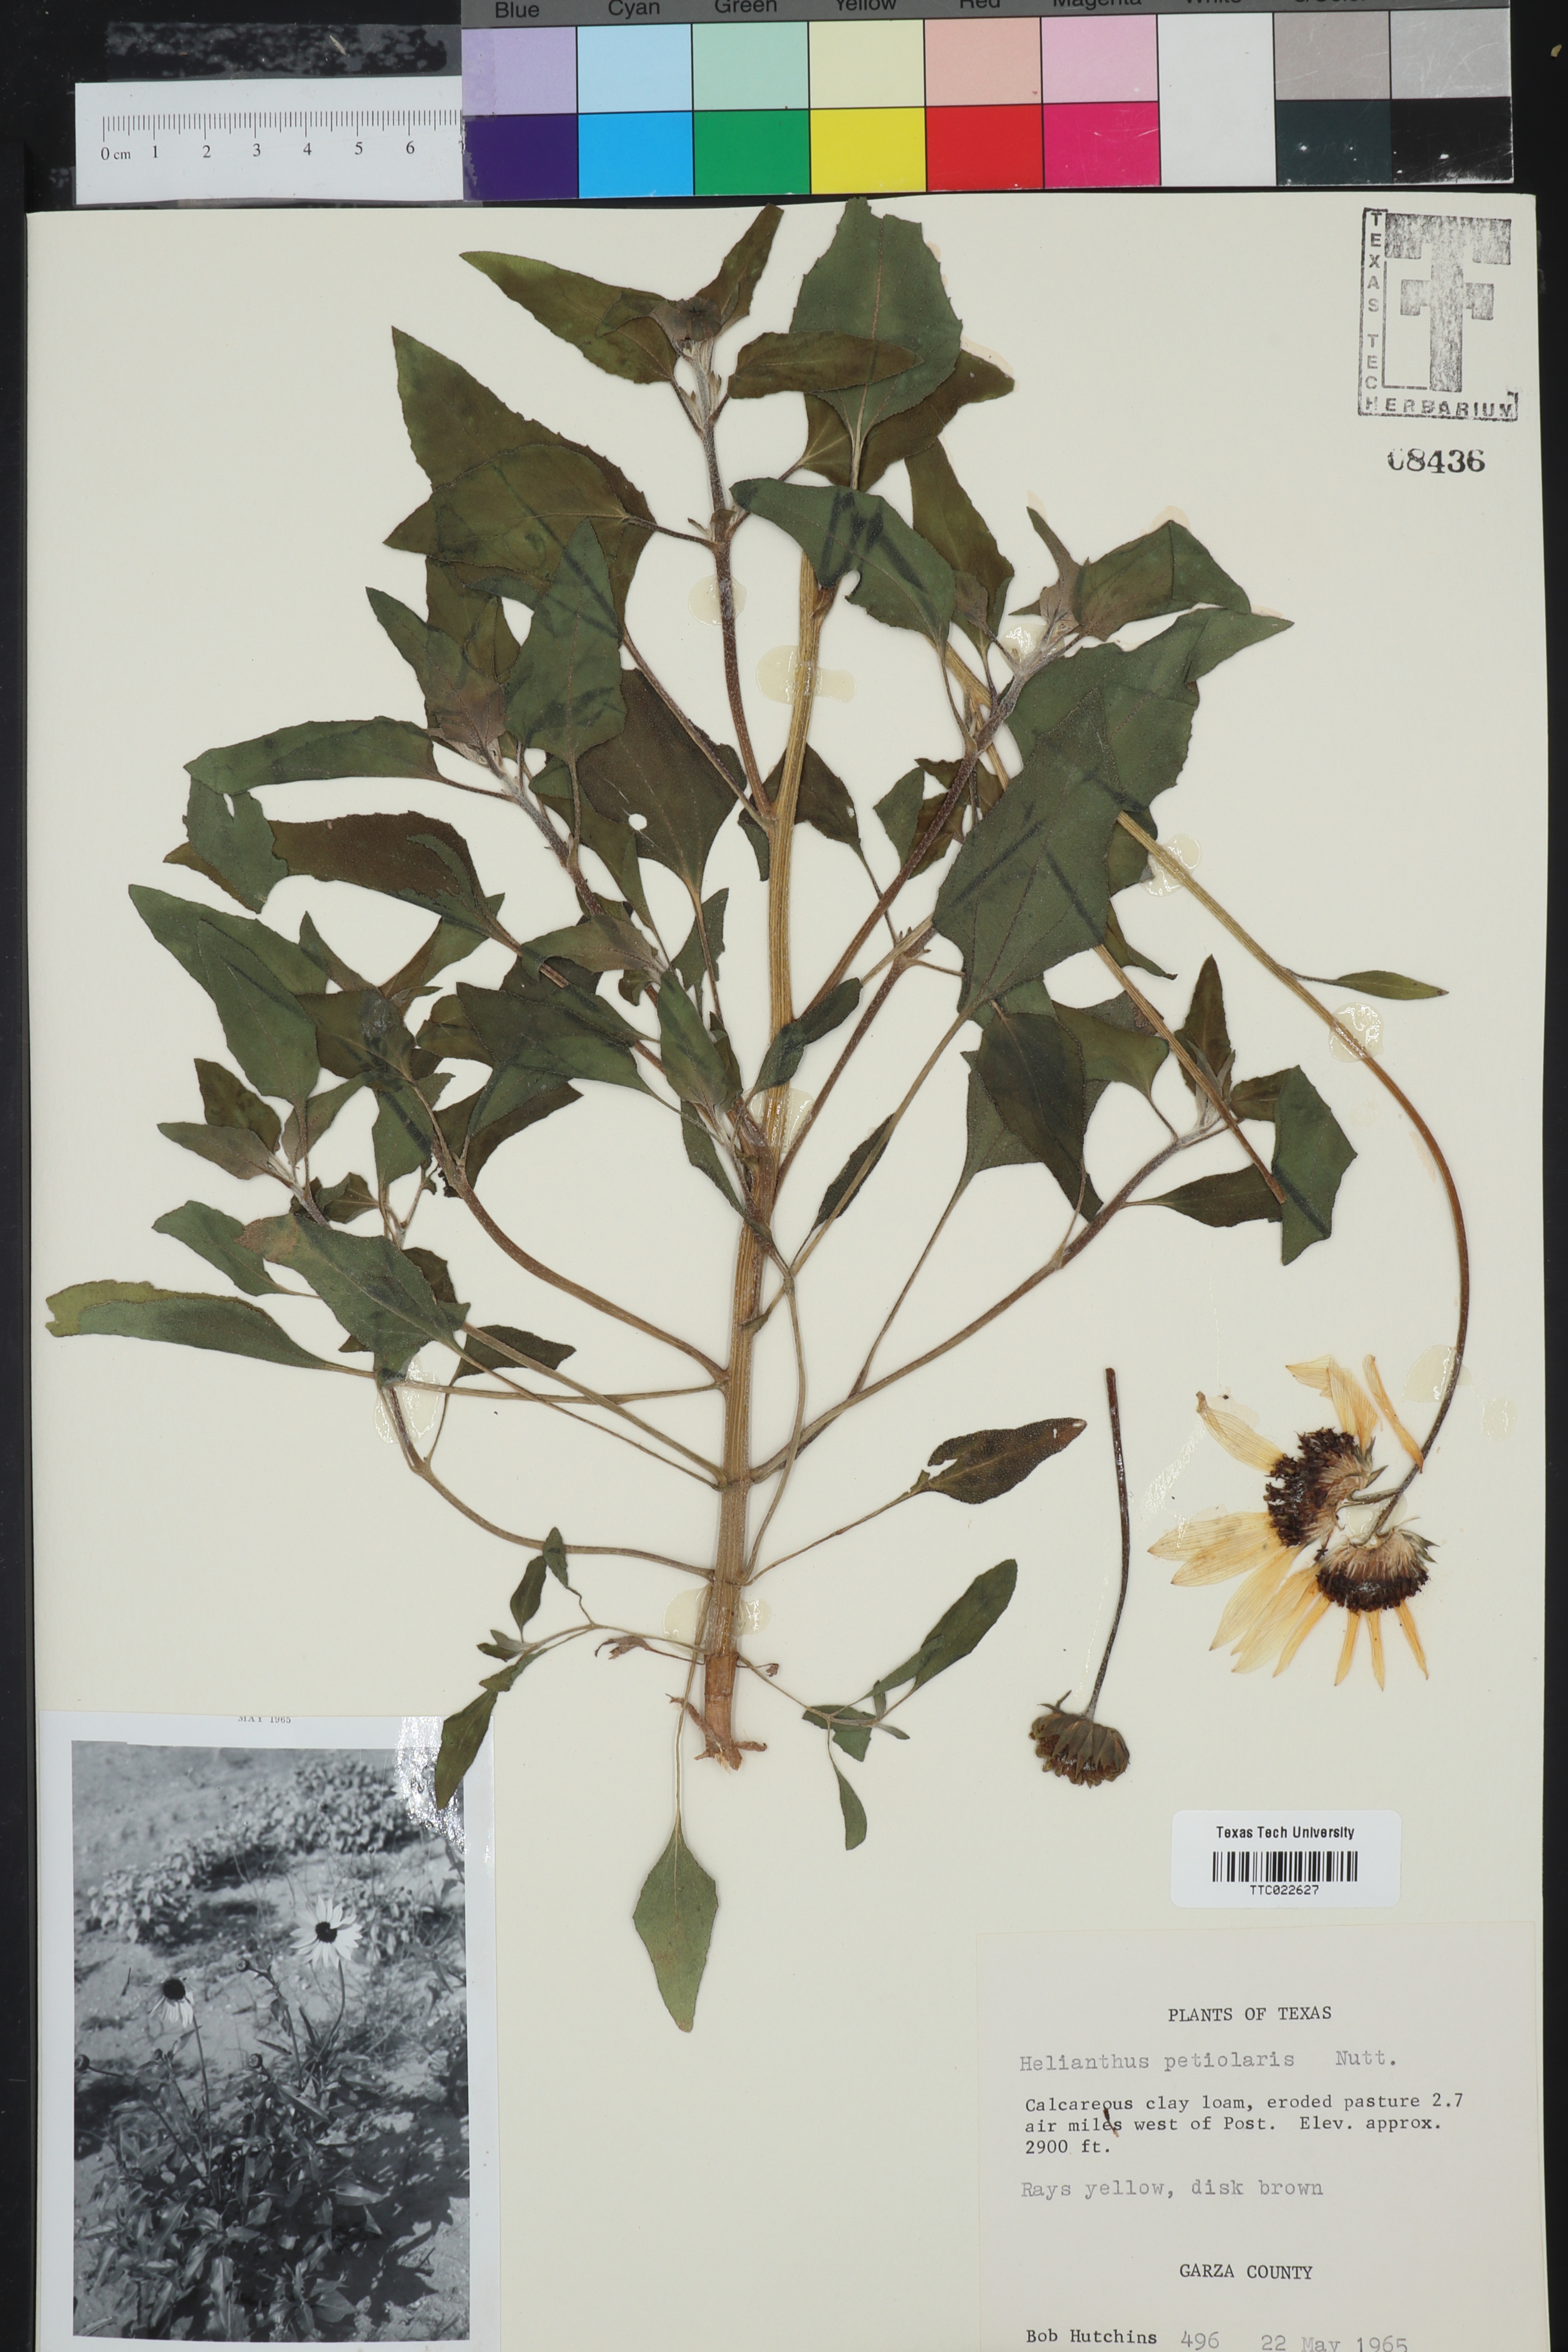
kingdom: Plantae
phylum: Tracheophyta
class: Magnoliopsida
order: Asterales
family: Asteraceae
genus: Helianthus
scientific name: Helianthus petiolaris
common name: Lesser sunflower
